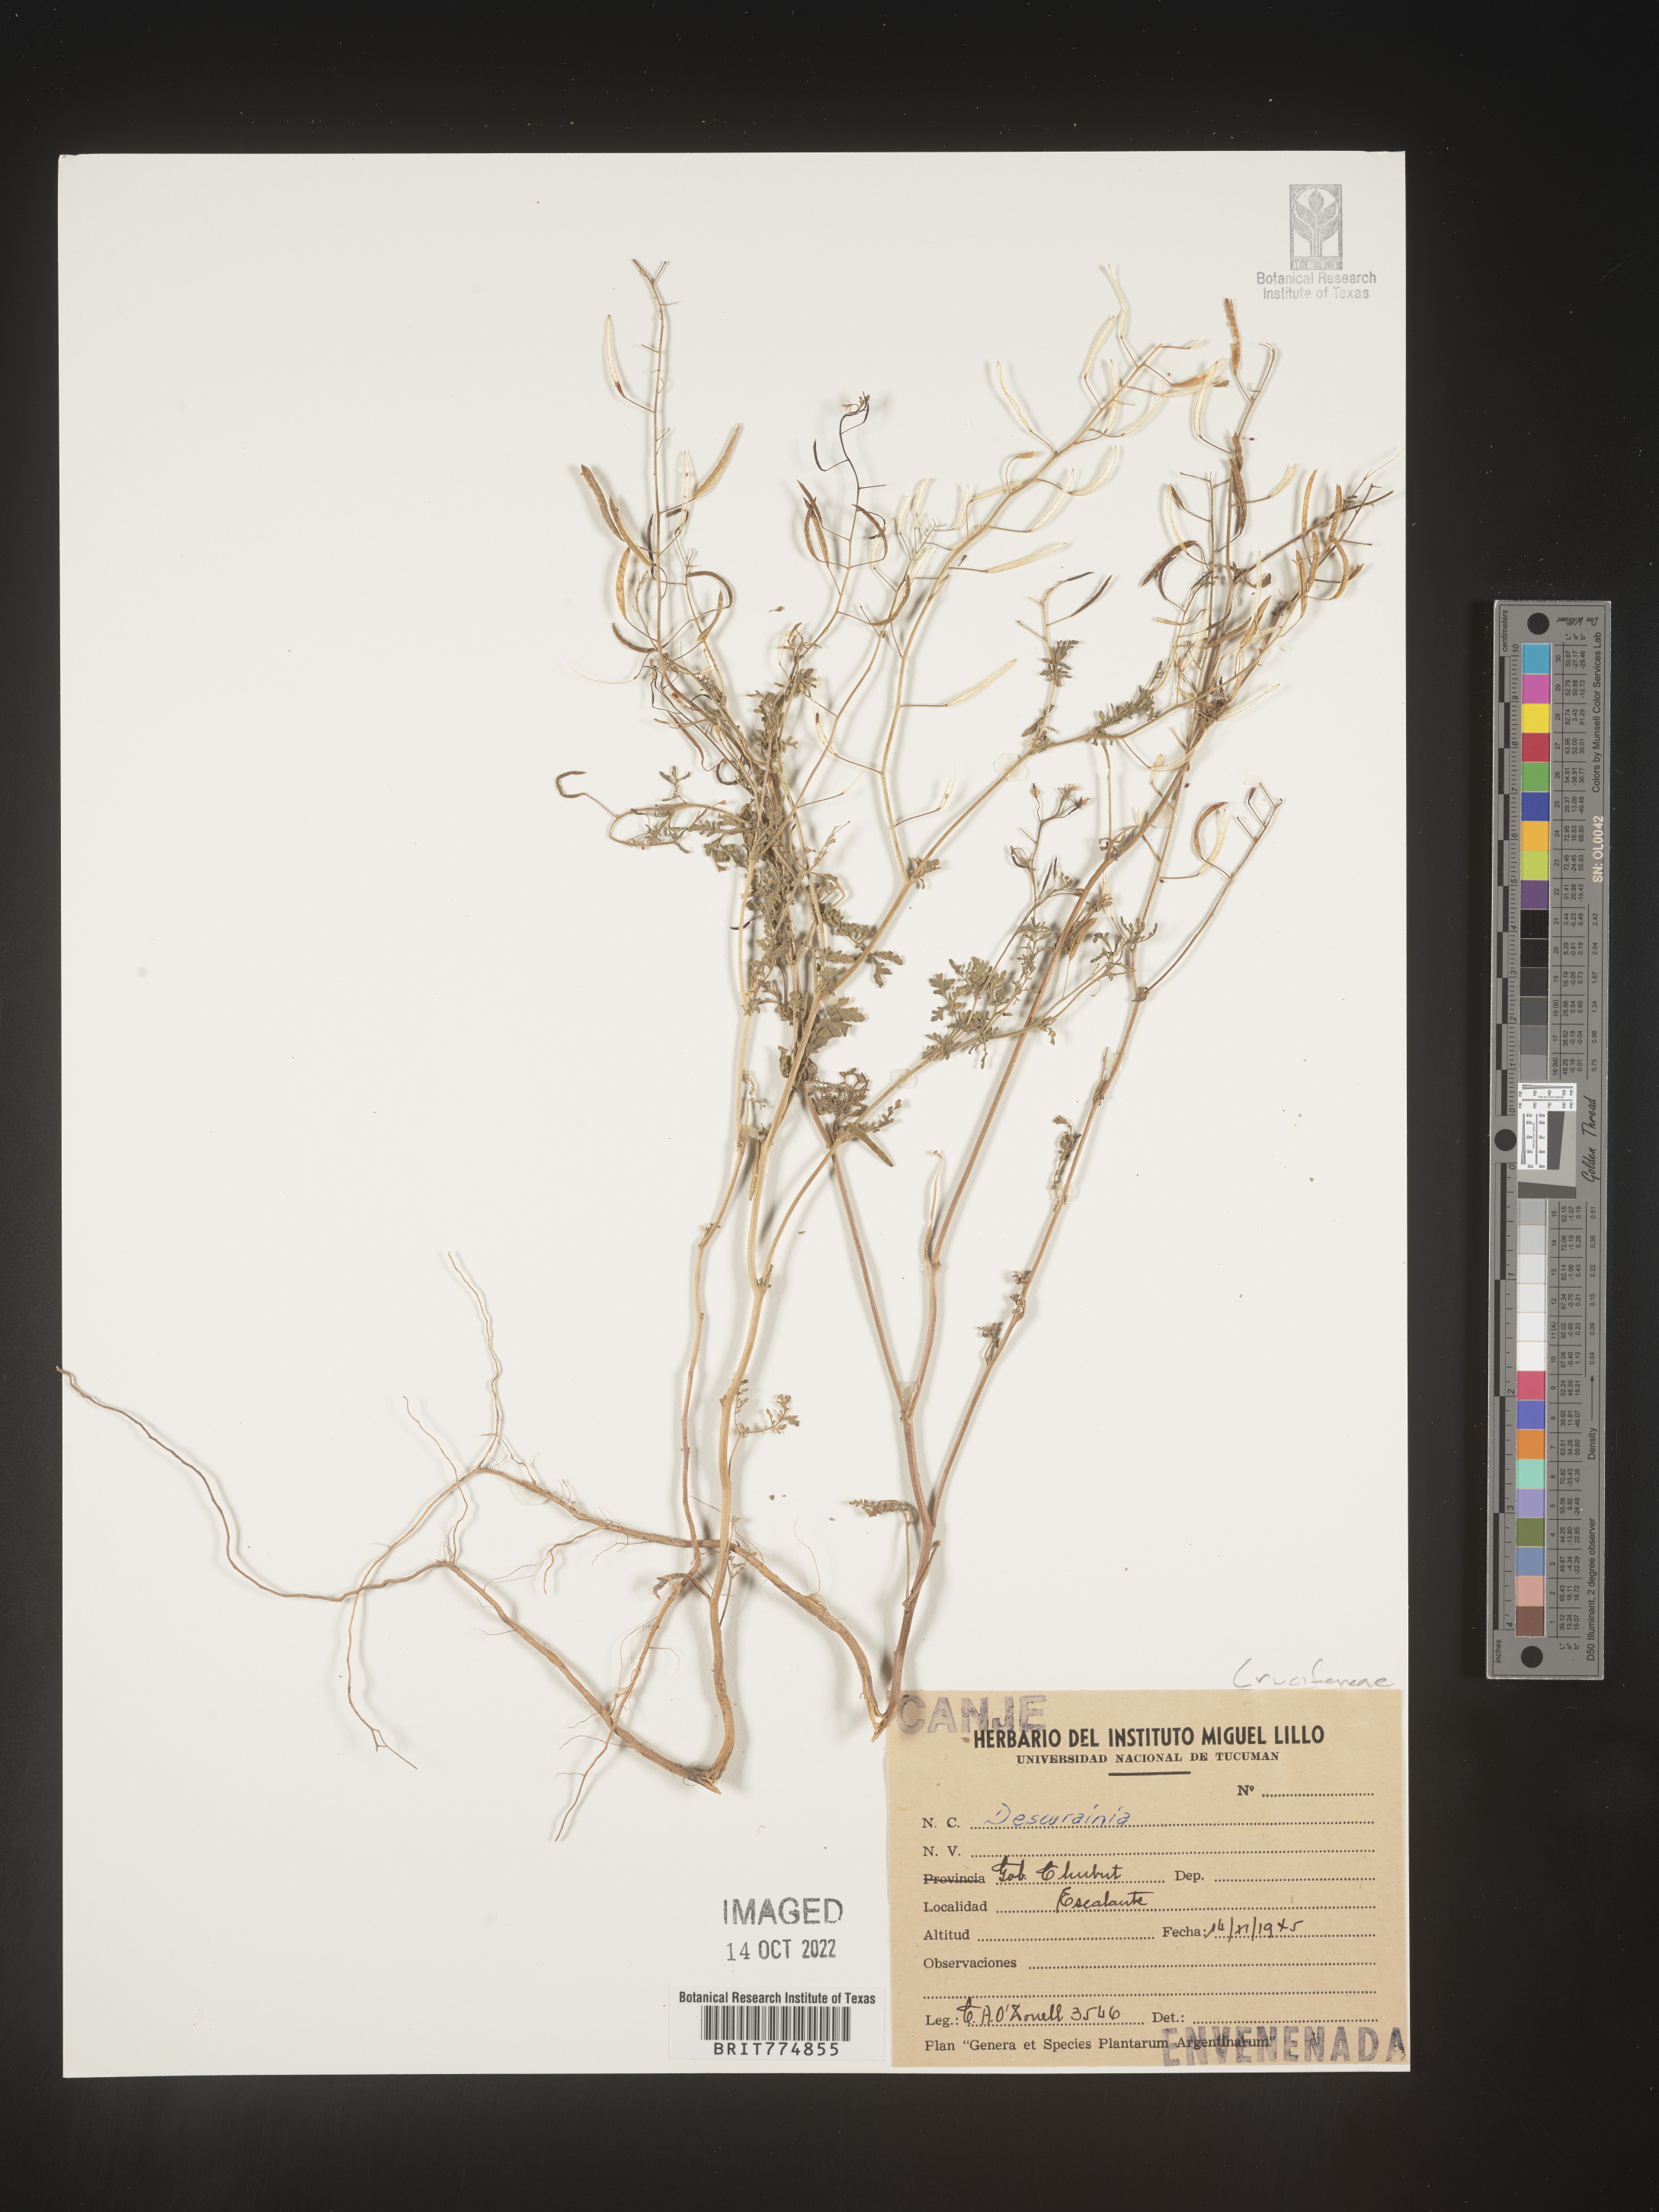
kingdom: Plantae
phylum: Tracheophyta
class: Magnoliopsida
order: Brassicales
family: Brassicaceae
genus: Descurainia
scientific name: Descurainia
